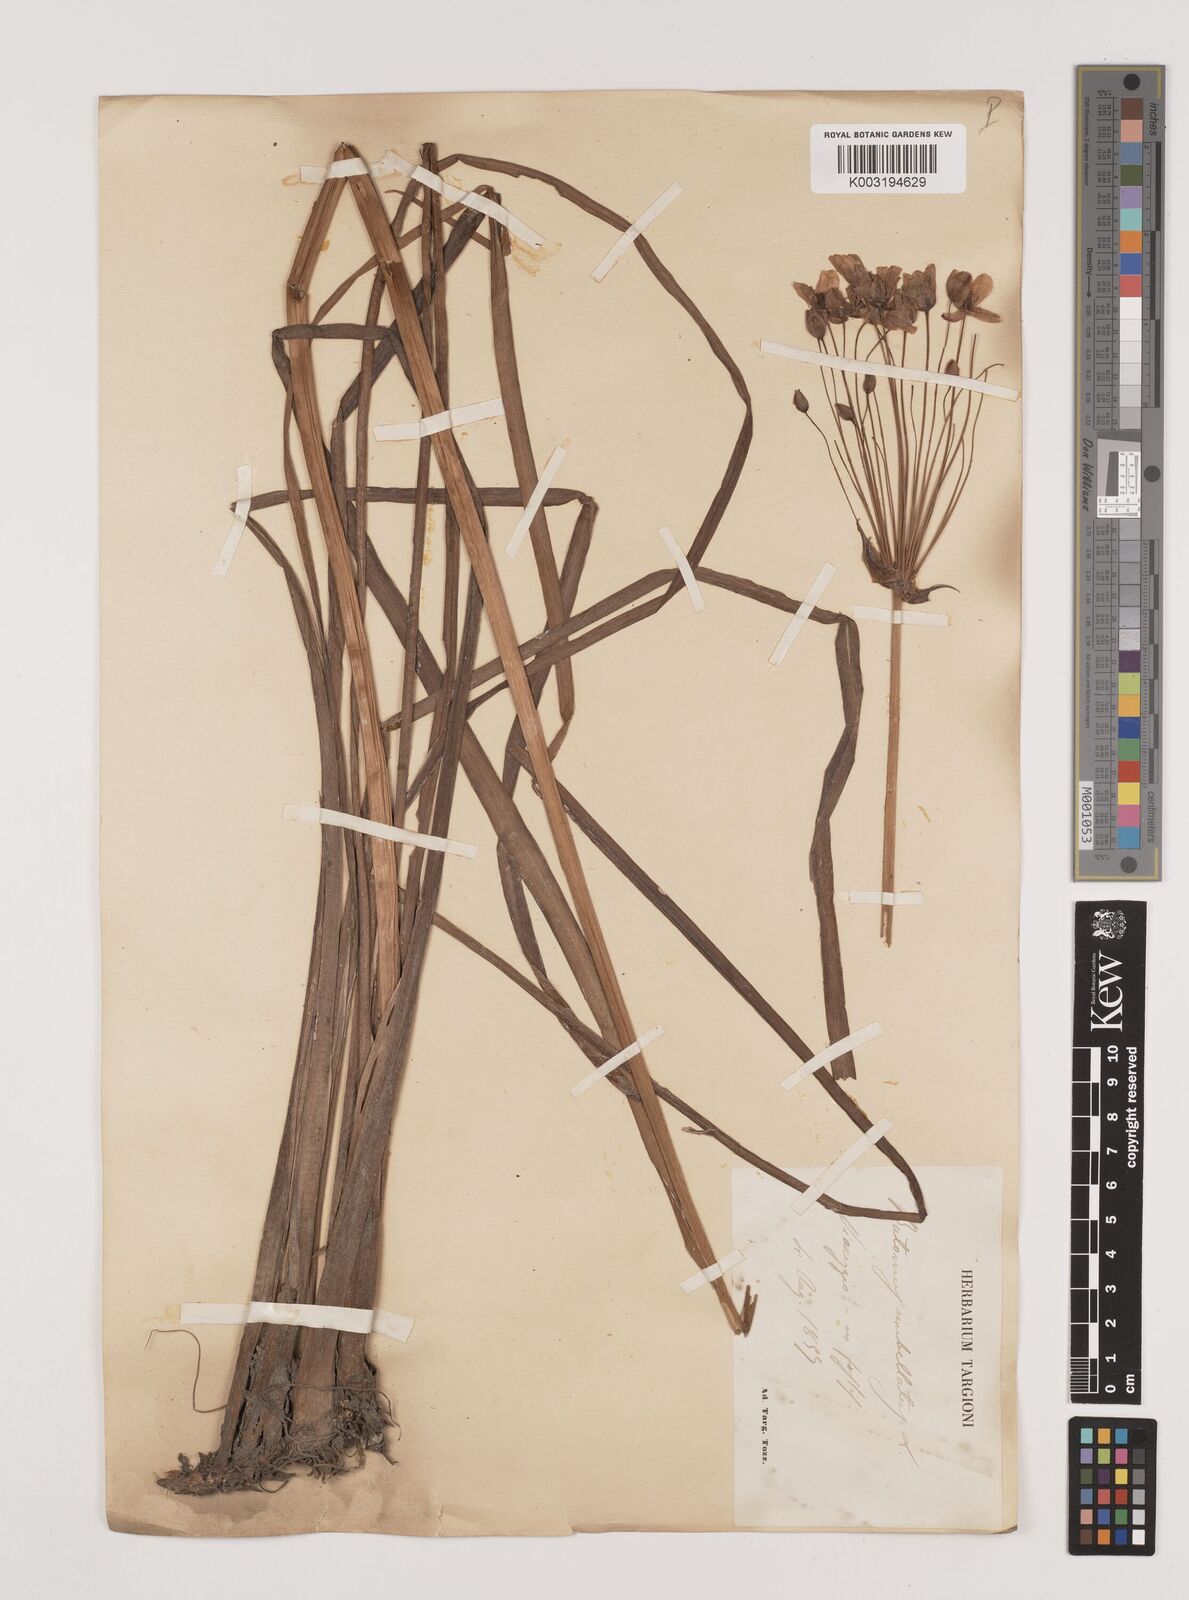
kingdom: Plantae
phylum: Tracheophyta
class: Liliopsida
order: Alismatales
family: Butomaceae
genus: Butomus
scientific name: Butomus umbellatus
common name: Flowering-rush
